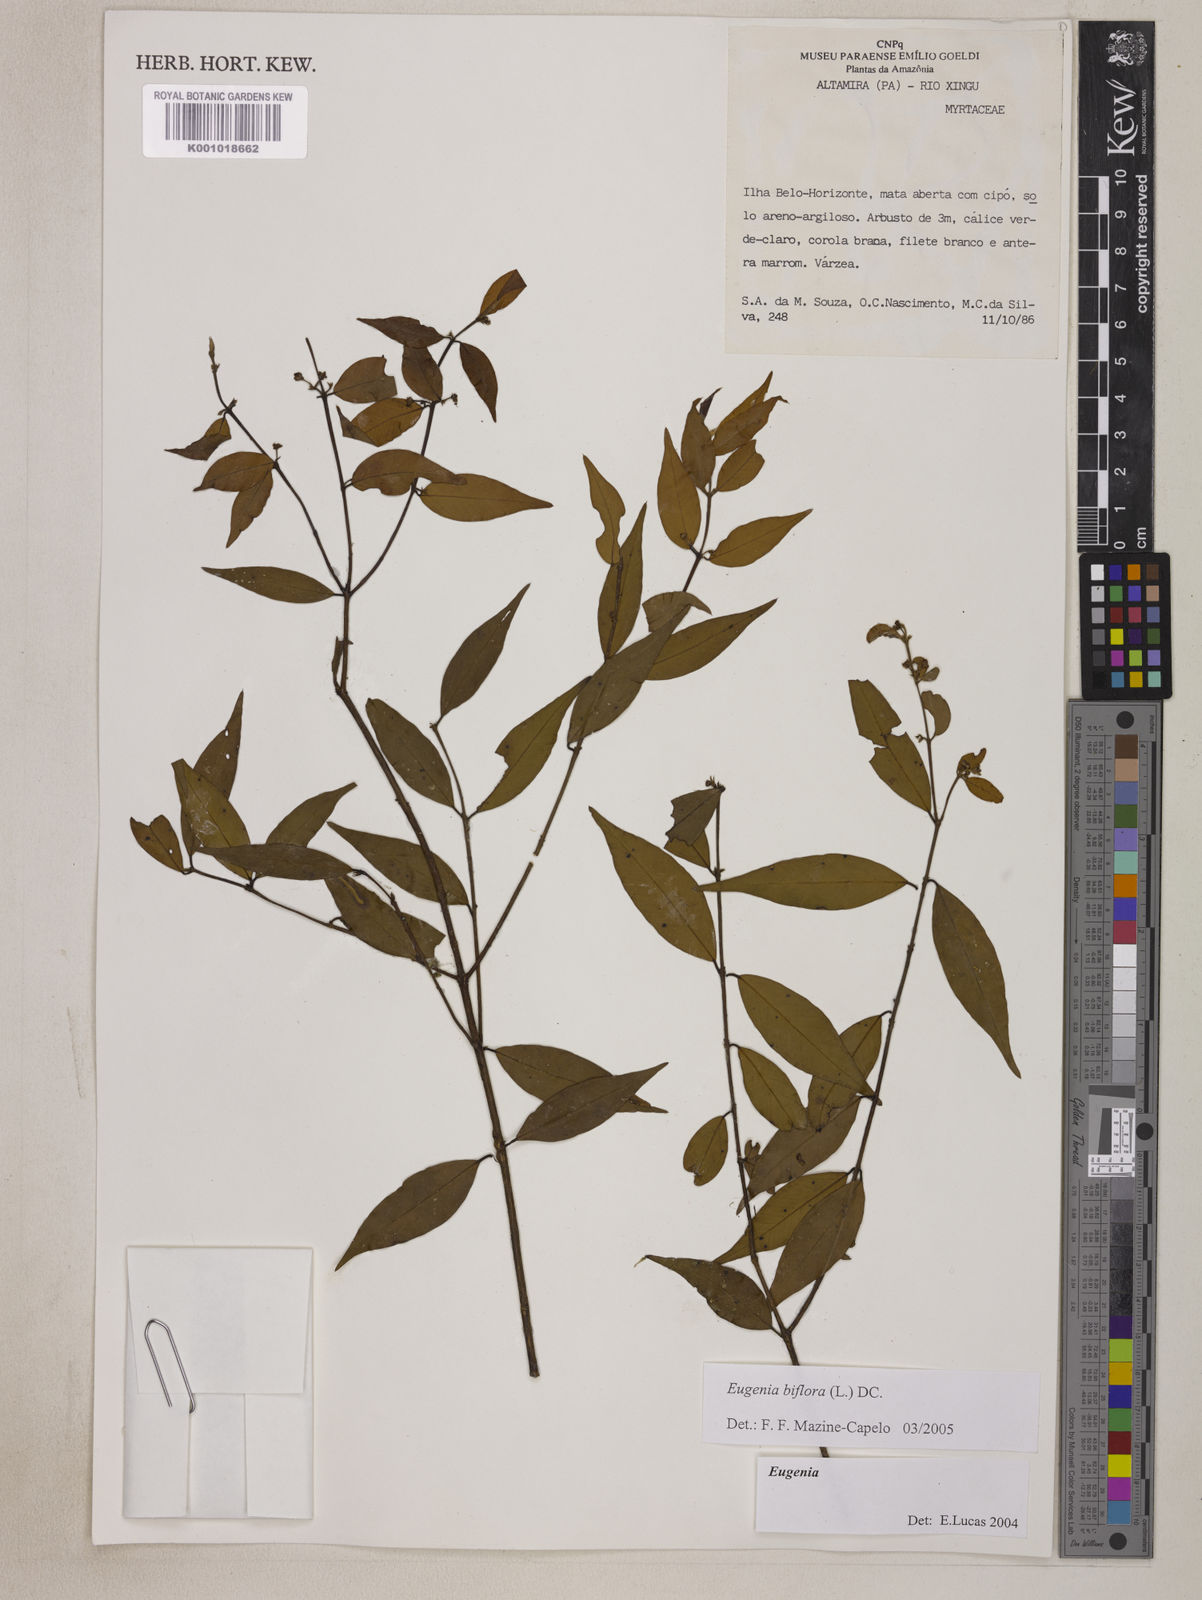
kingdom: Plantae
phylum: Tracheophyta
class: Magnoliopsida
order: Myrtales
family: Myrtaceae
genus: Eugenia
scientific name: Eugenia biflora
